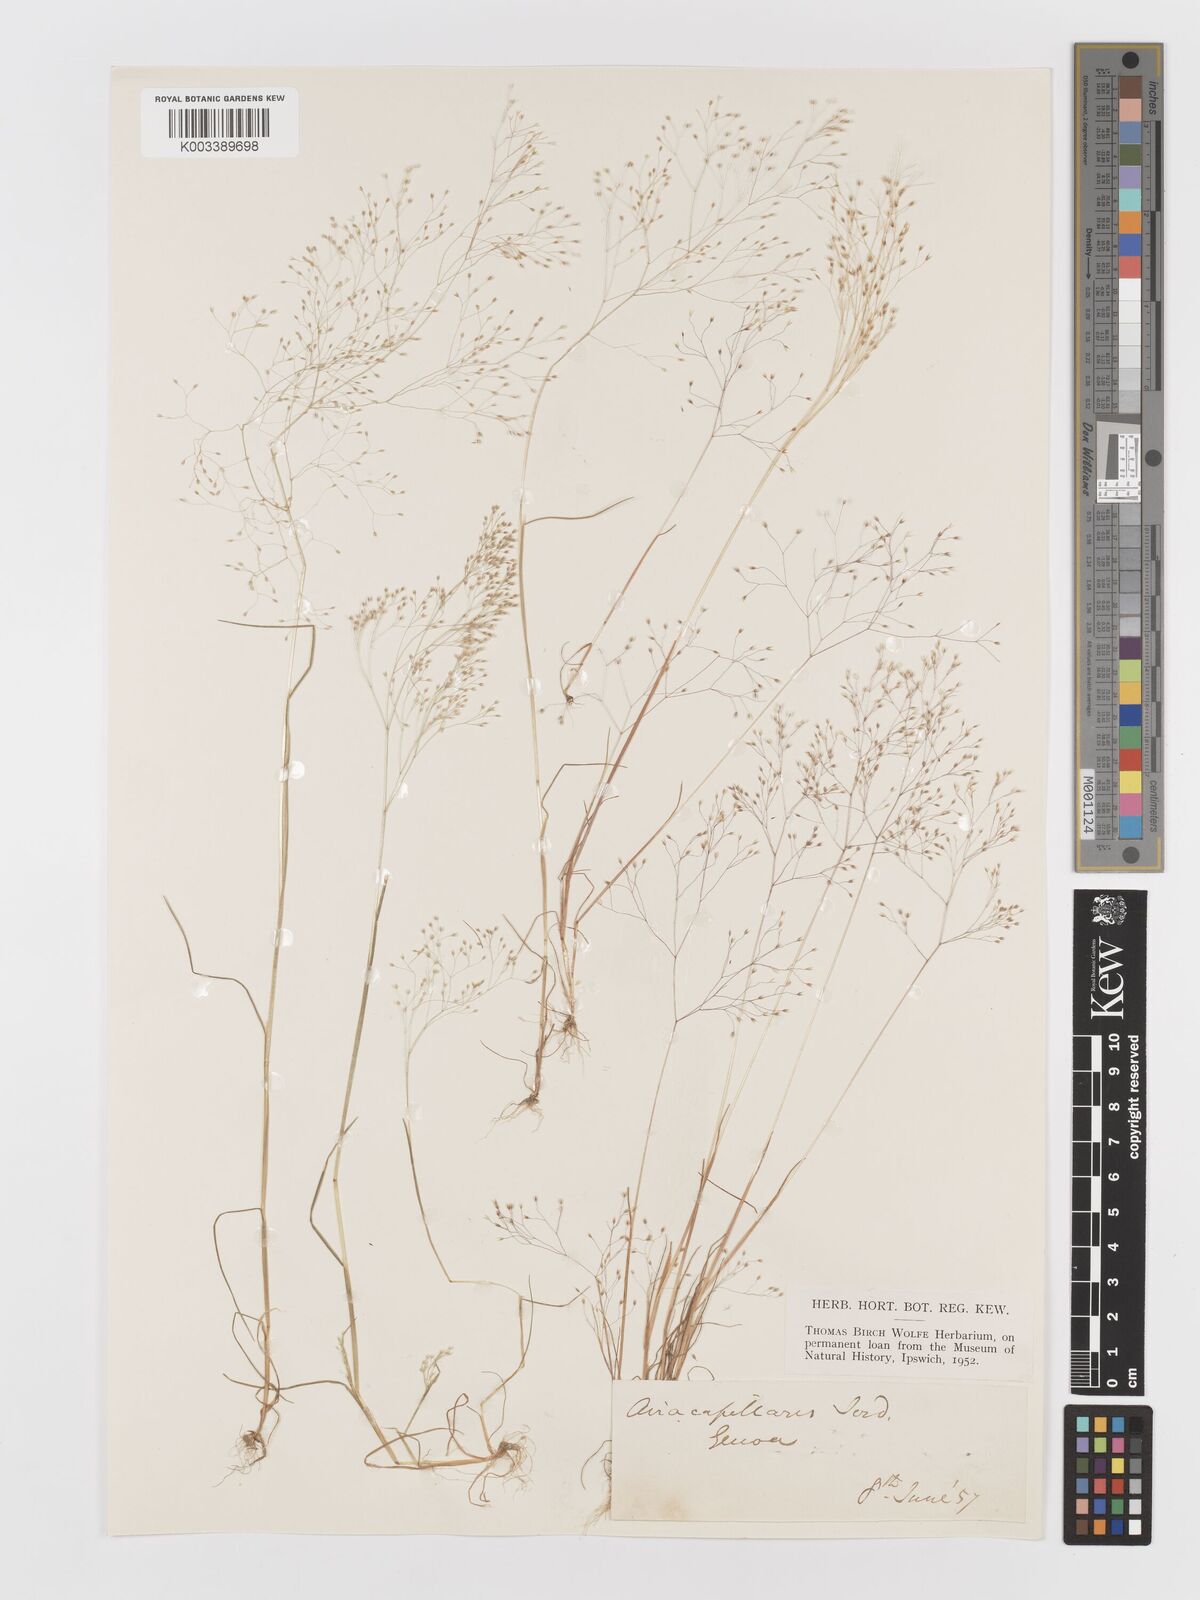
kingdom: Plantae
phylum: Tracheophyta
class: Liliopsida
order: Poales
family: Poaceae
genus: Aira
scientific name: Aira caryophyllea
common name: Silver hairgrass
